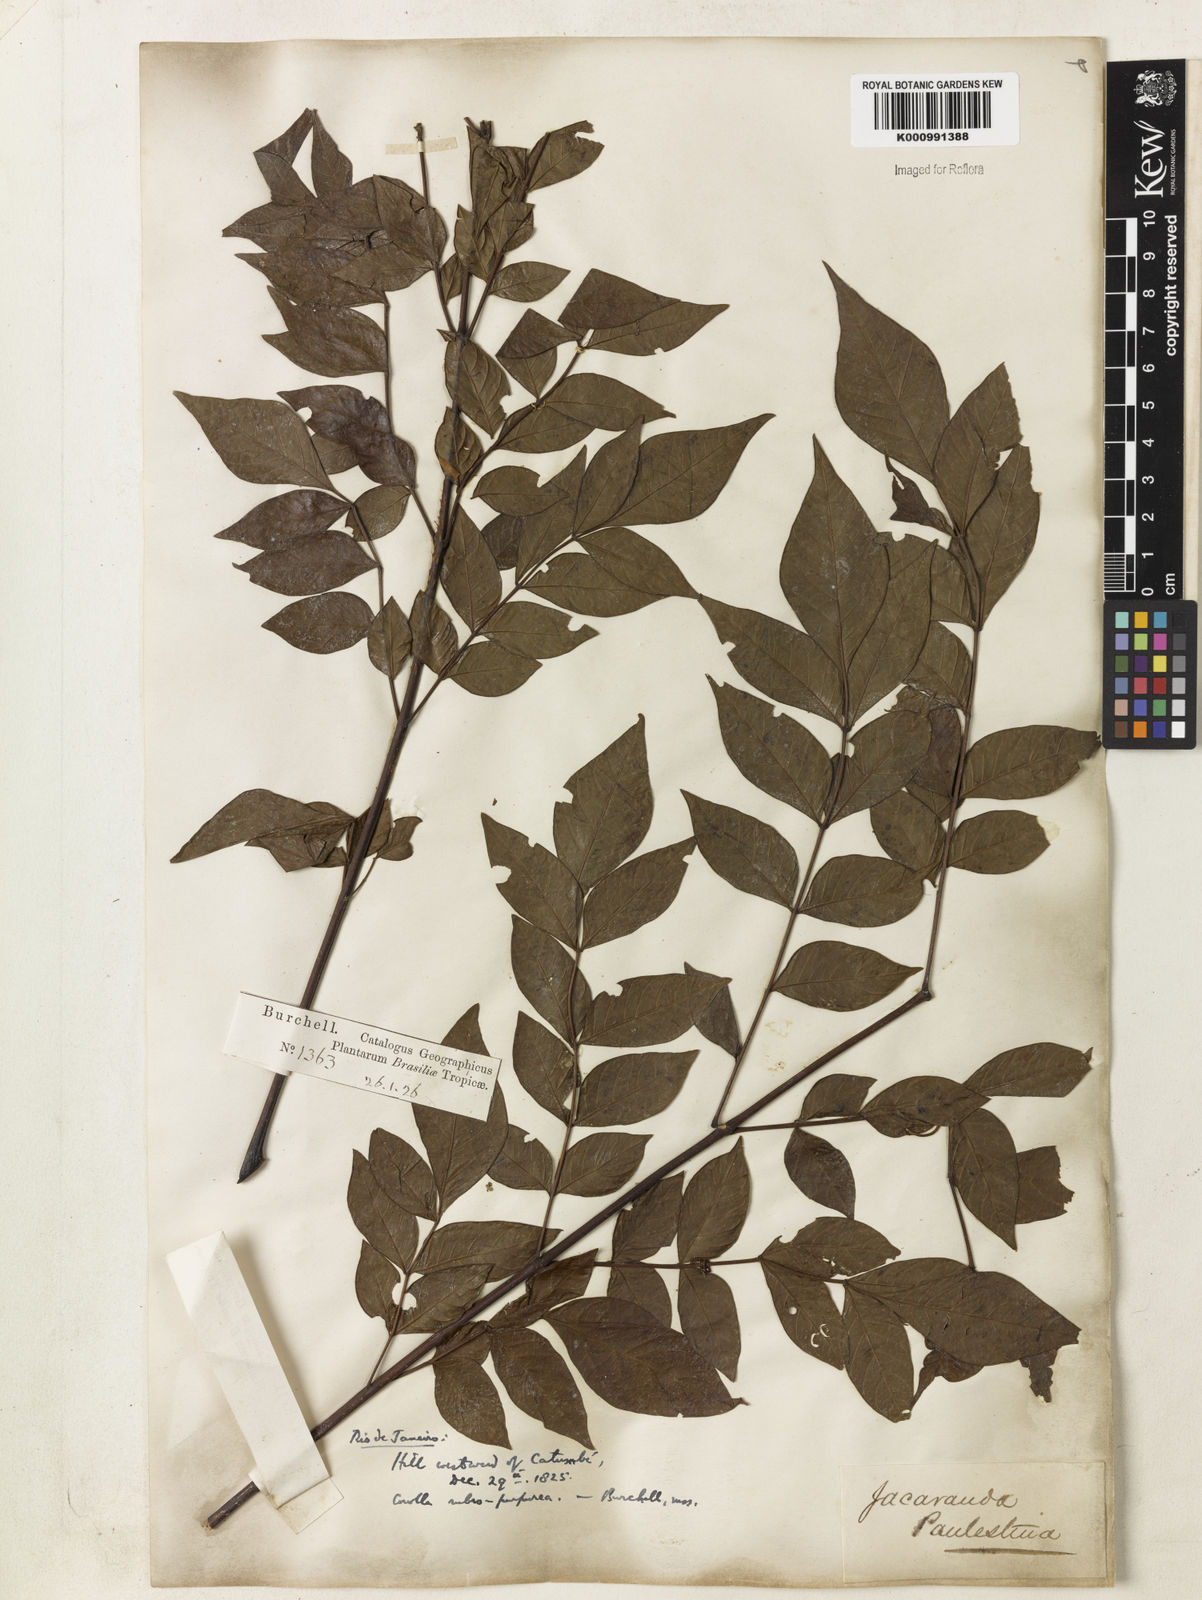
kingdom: Plantae
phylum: Tracheophyta
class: Magnoliopsida
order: Lamiales
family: Bignoniaceae
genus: Jacaranda
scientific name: Jacaranda micrantha
